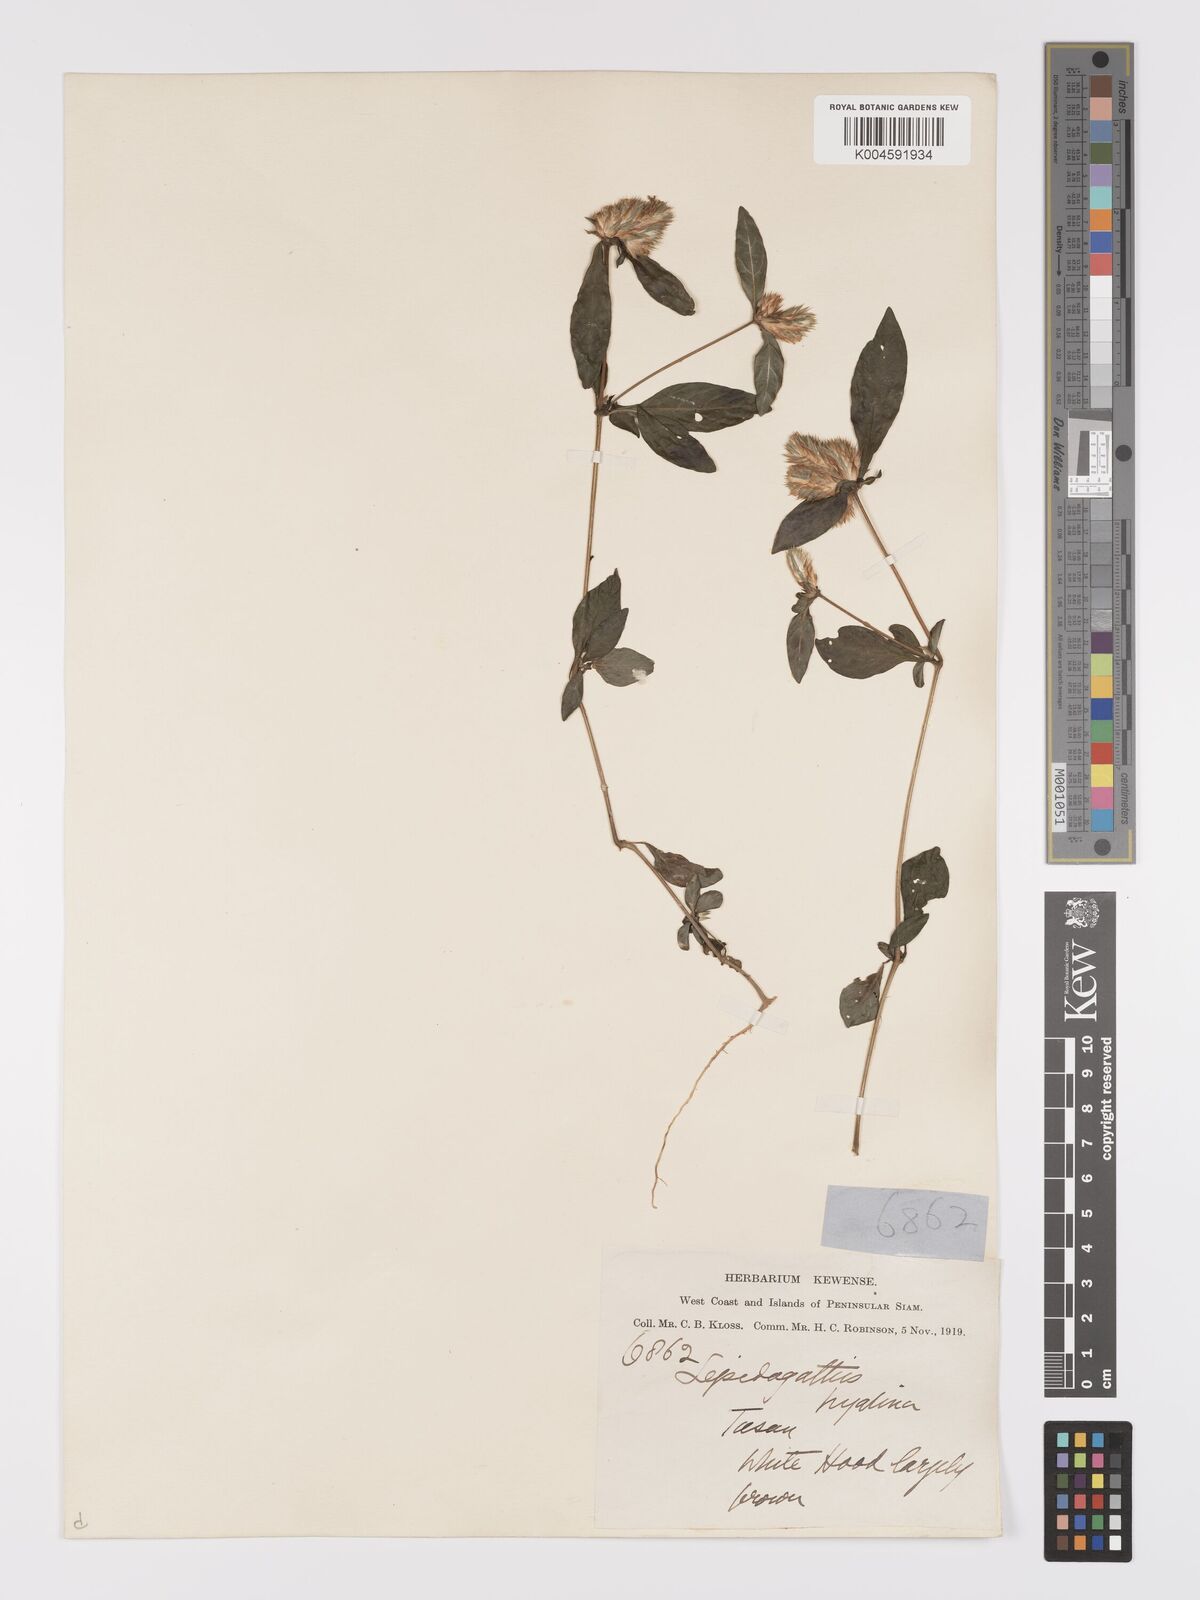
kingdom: Plantae
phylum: Tracheophyta
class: Magnoliopsida
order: Lamiales
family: Acanthaceae
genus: Lepidagathis
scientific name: Lepidagathis incurva
